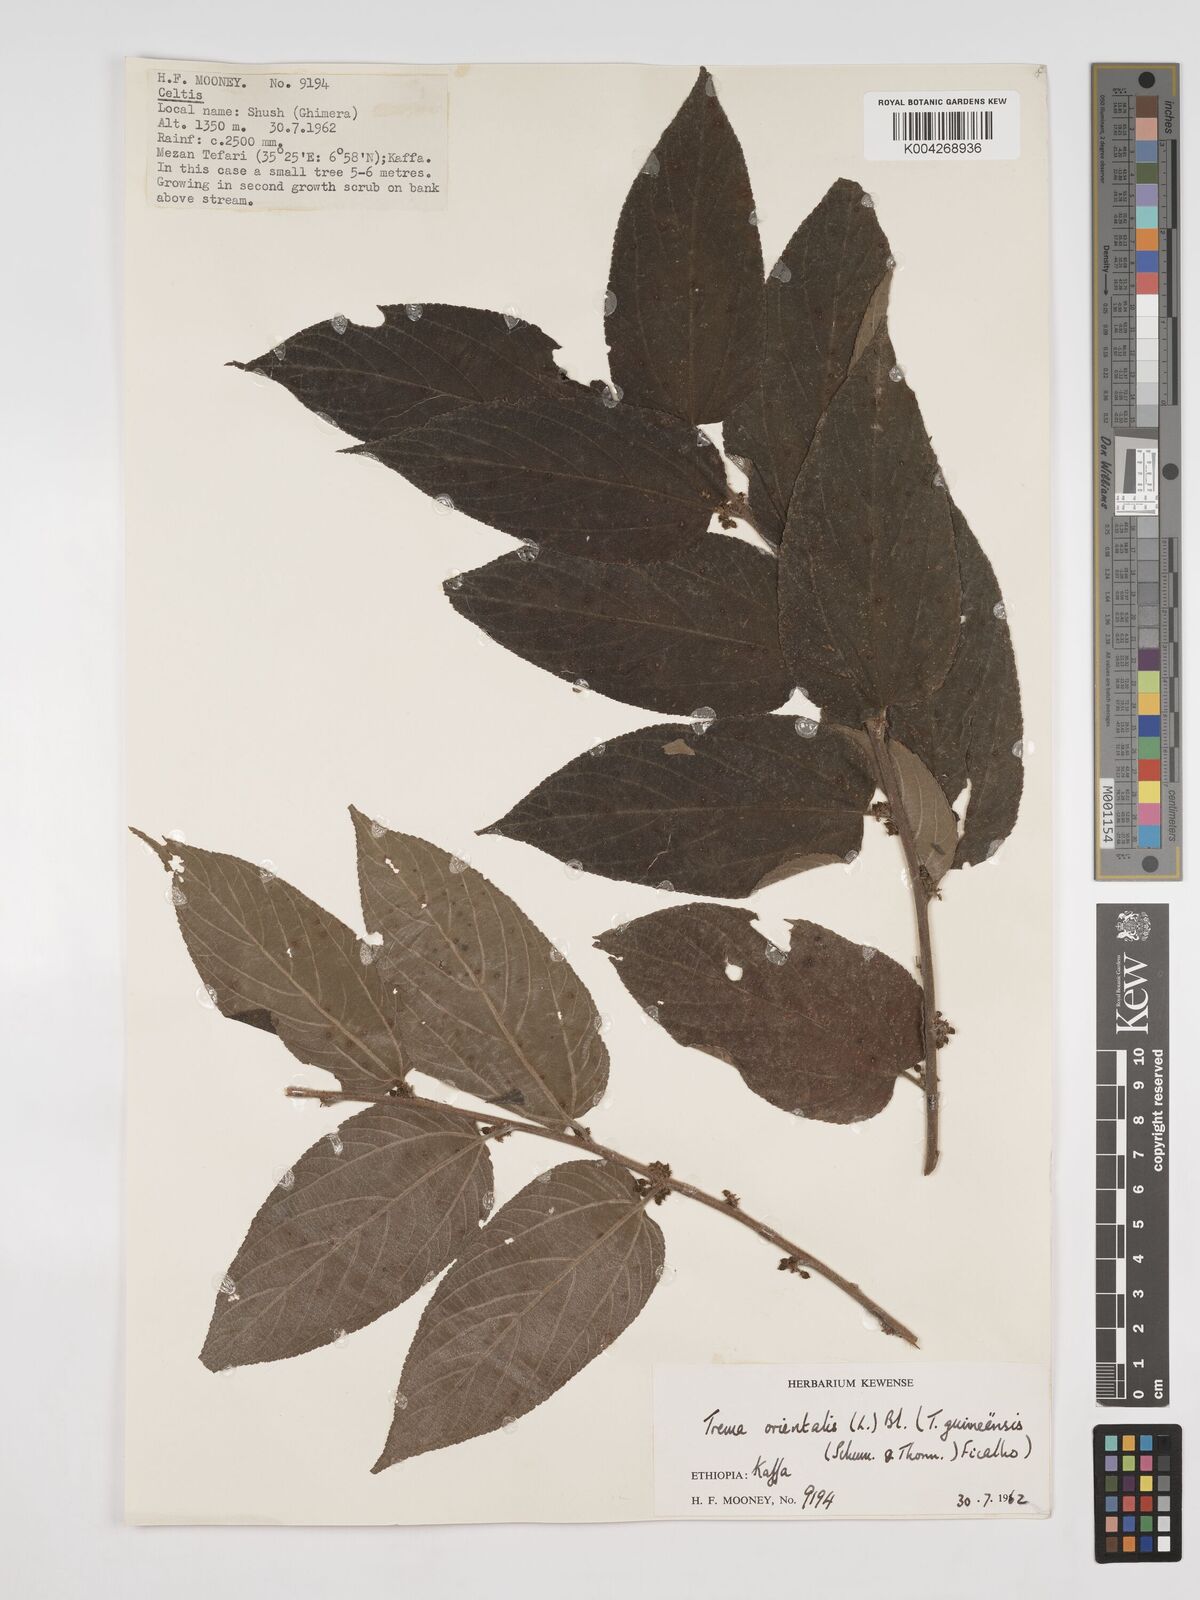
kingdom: Plantae
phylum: Tracheophyta
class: Magnoliopsida
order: Rosales
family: Cannabaceae
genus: Trema
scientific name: Trema orientale
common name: Indian charcoal tree
